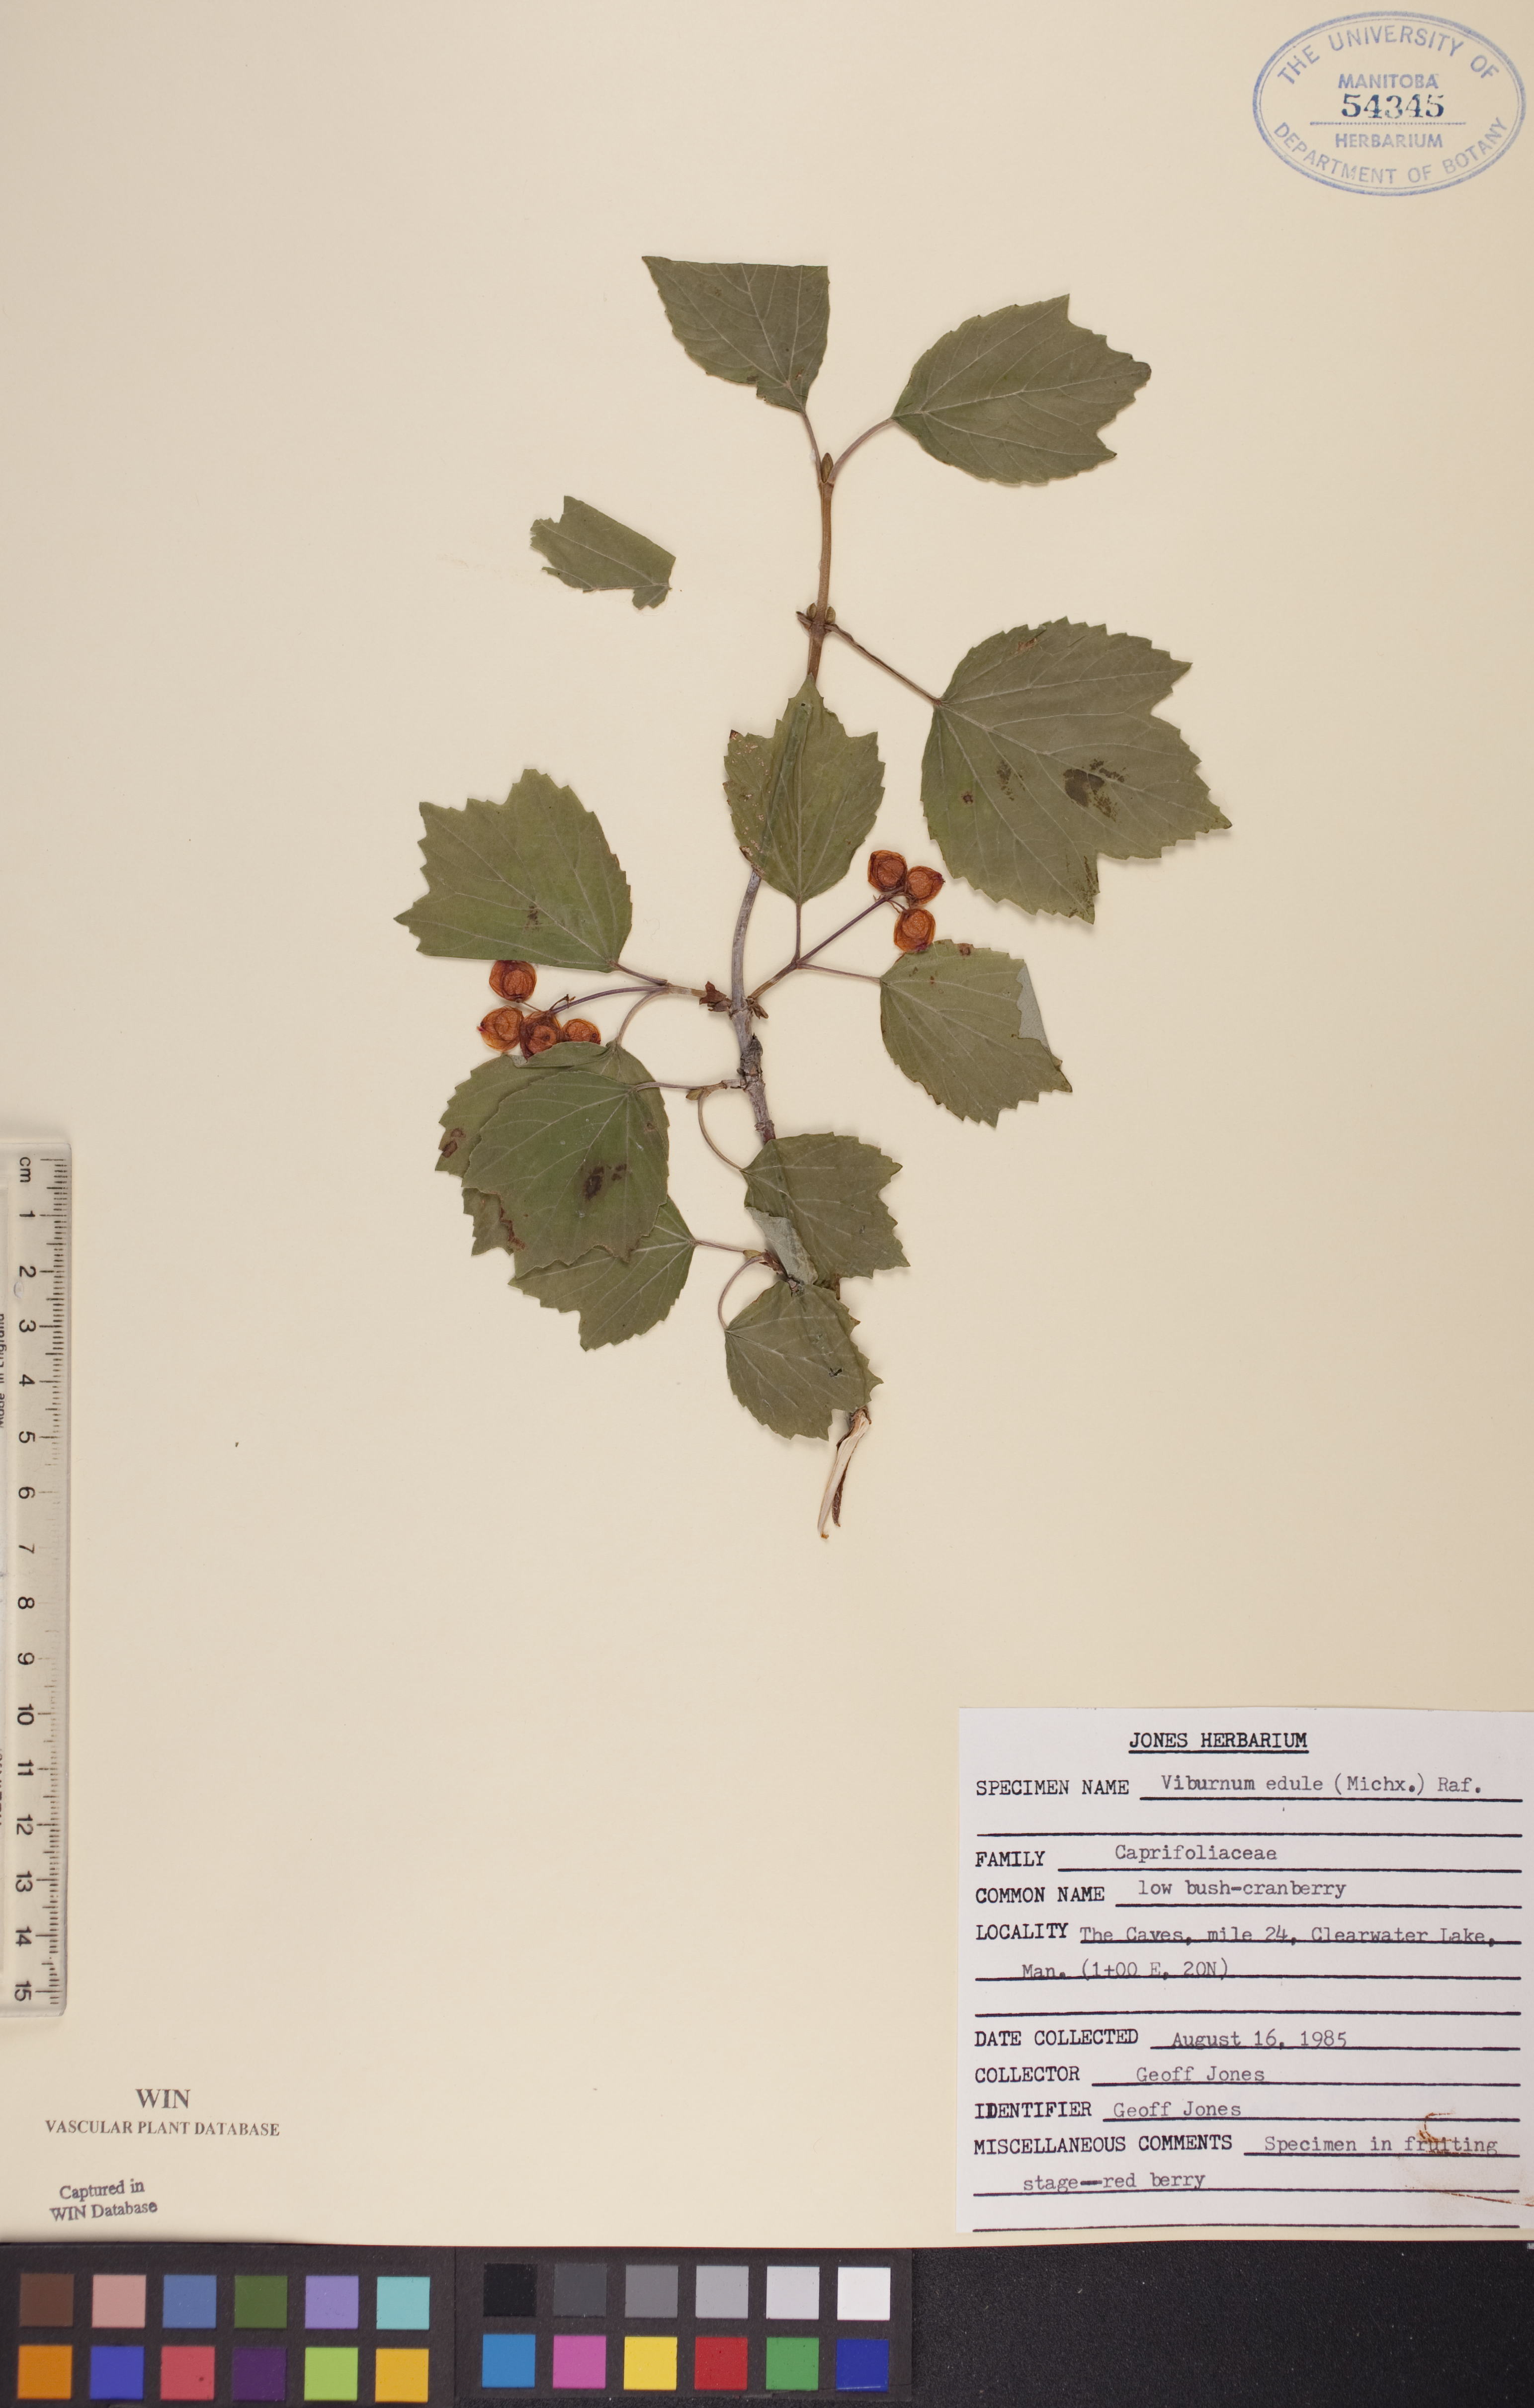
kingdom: Plantae
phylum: Tracheophyta
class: Magnoliopsida
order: Dipsacales
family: Viburnaceae
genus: Viburnum
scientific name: Viburnum edule
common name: Mooseberry
